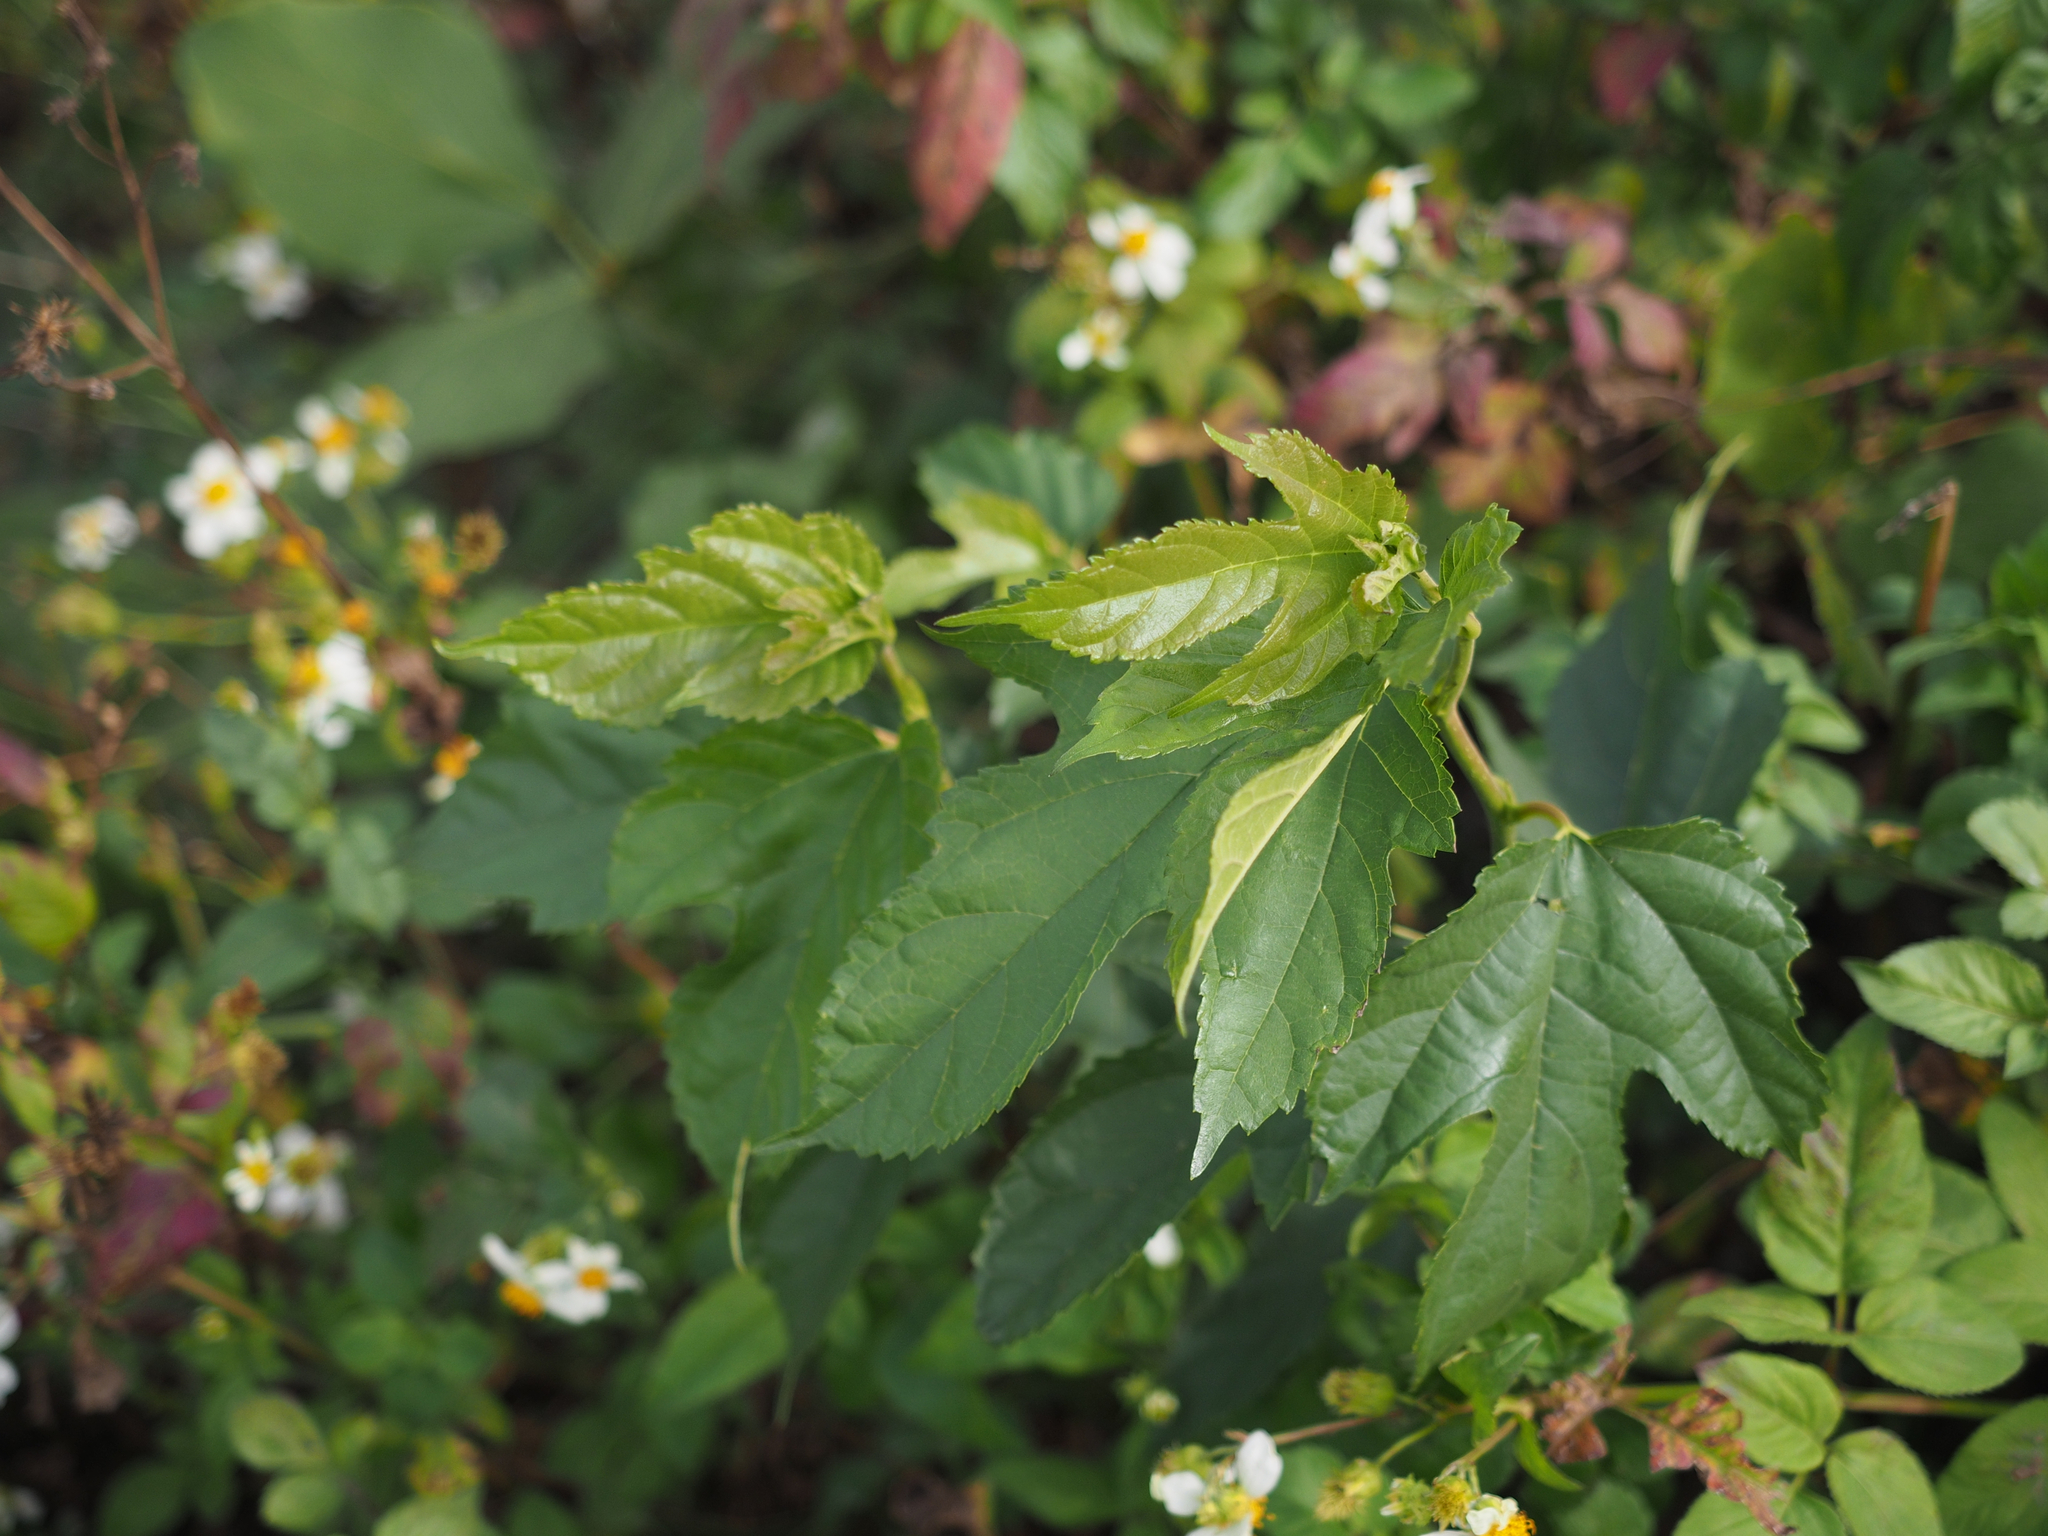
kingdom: Plantae
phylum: Tracheophyta
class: Magnoliopsida
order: Rosales
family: Moraceae
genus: Broussonetia
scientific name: Broussonetia papyrifera
